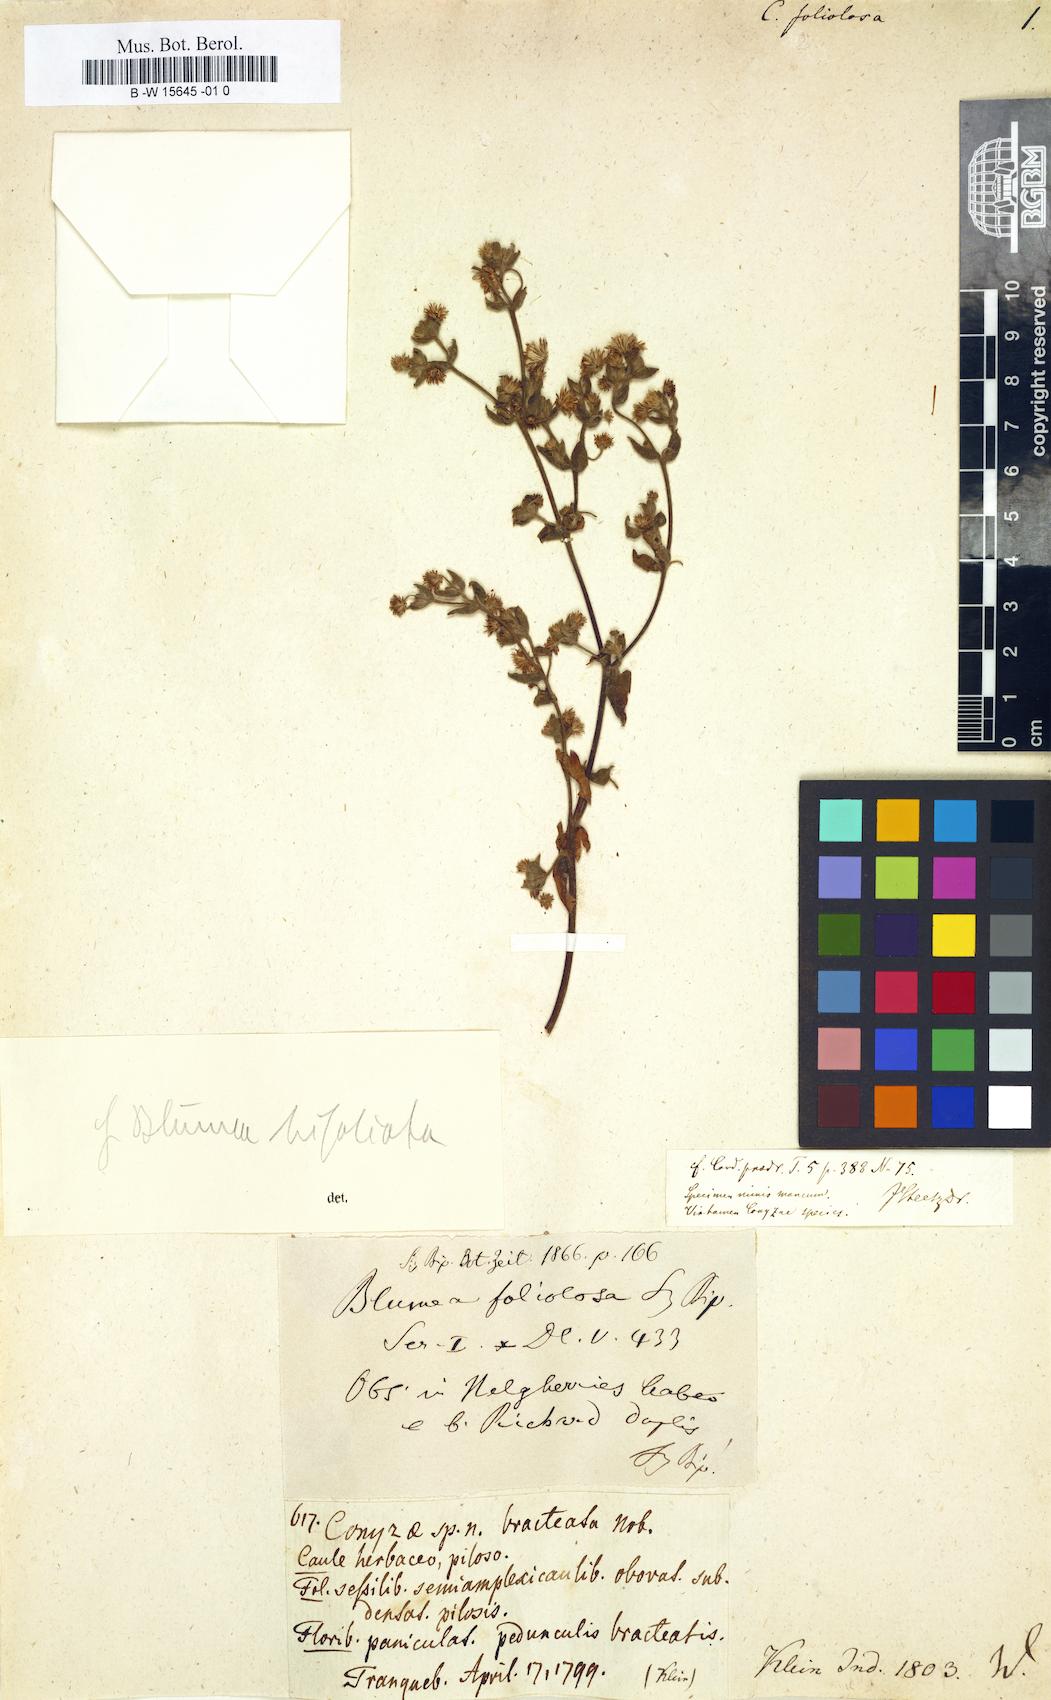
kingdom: Plantae
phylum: Tracheophyta
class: Magnoliopsida
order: Asterales
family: Asteraceae
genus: Erigeron
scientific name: Erigeron foliosus
